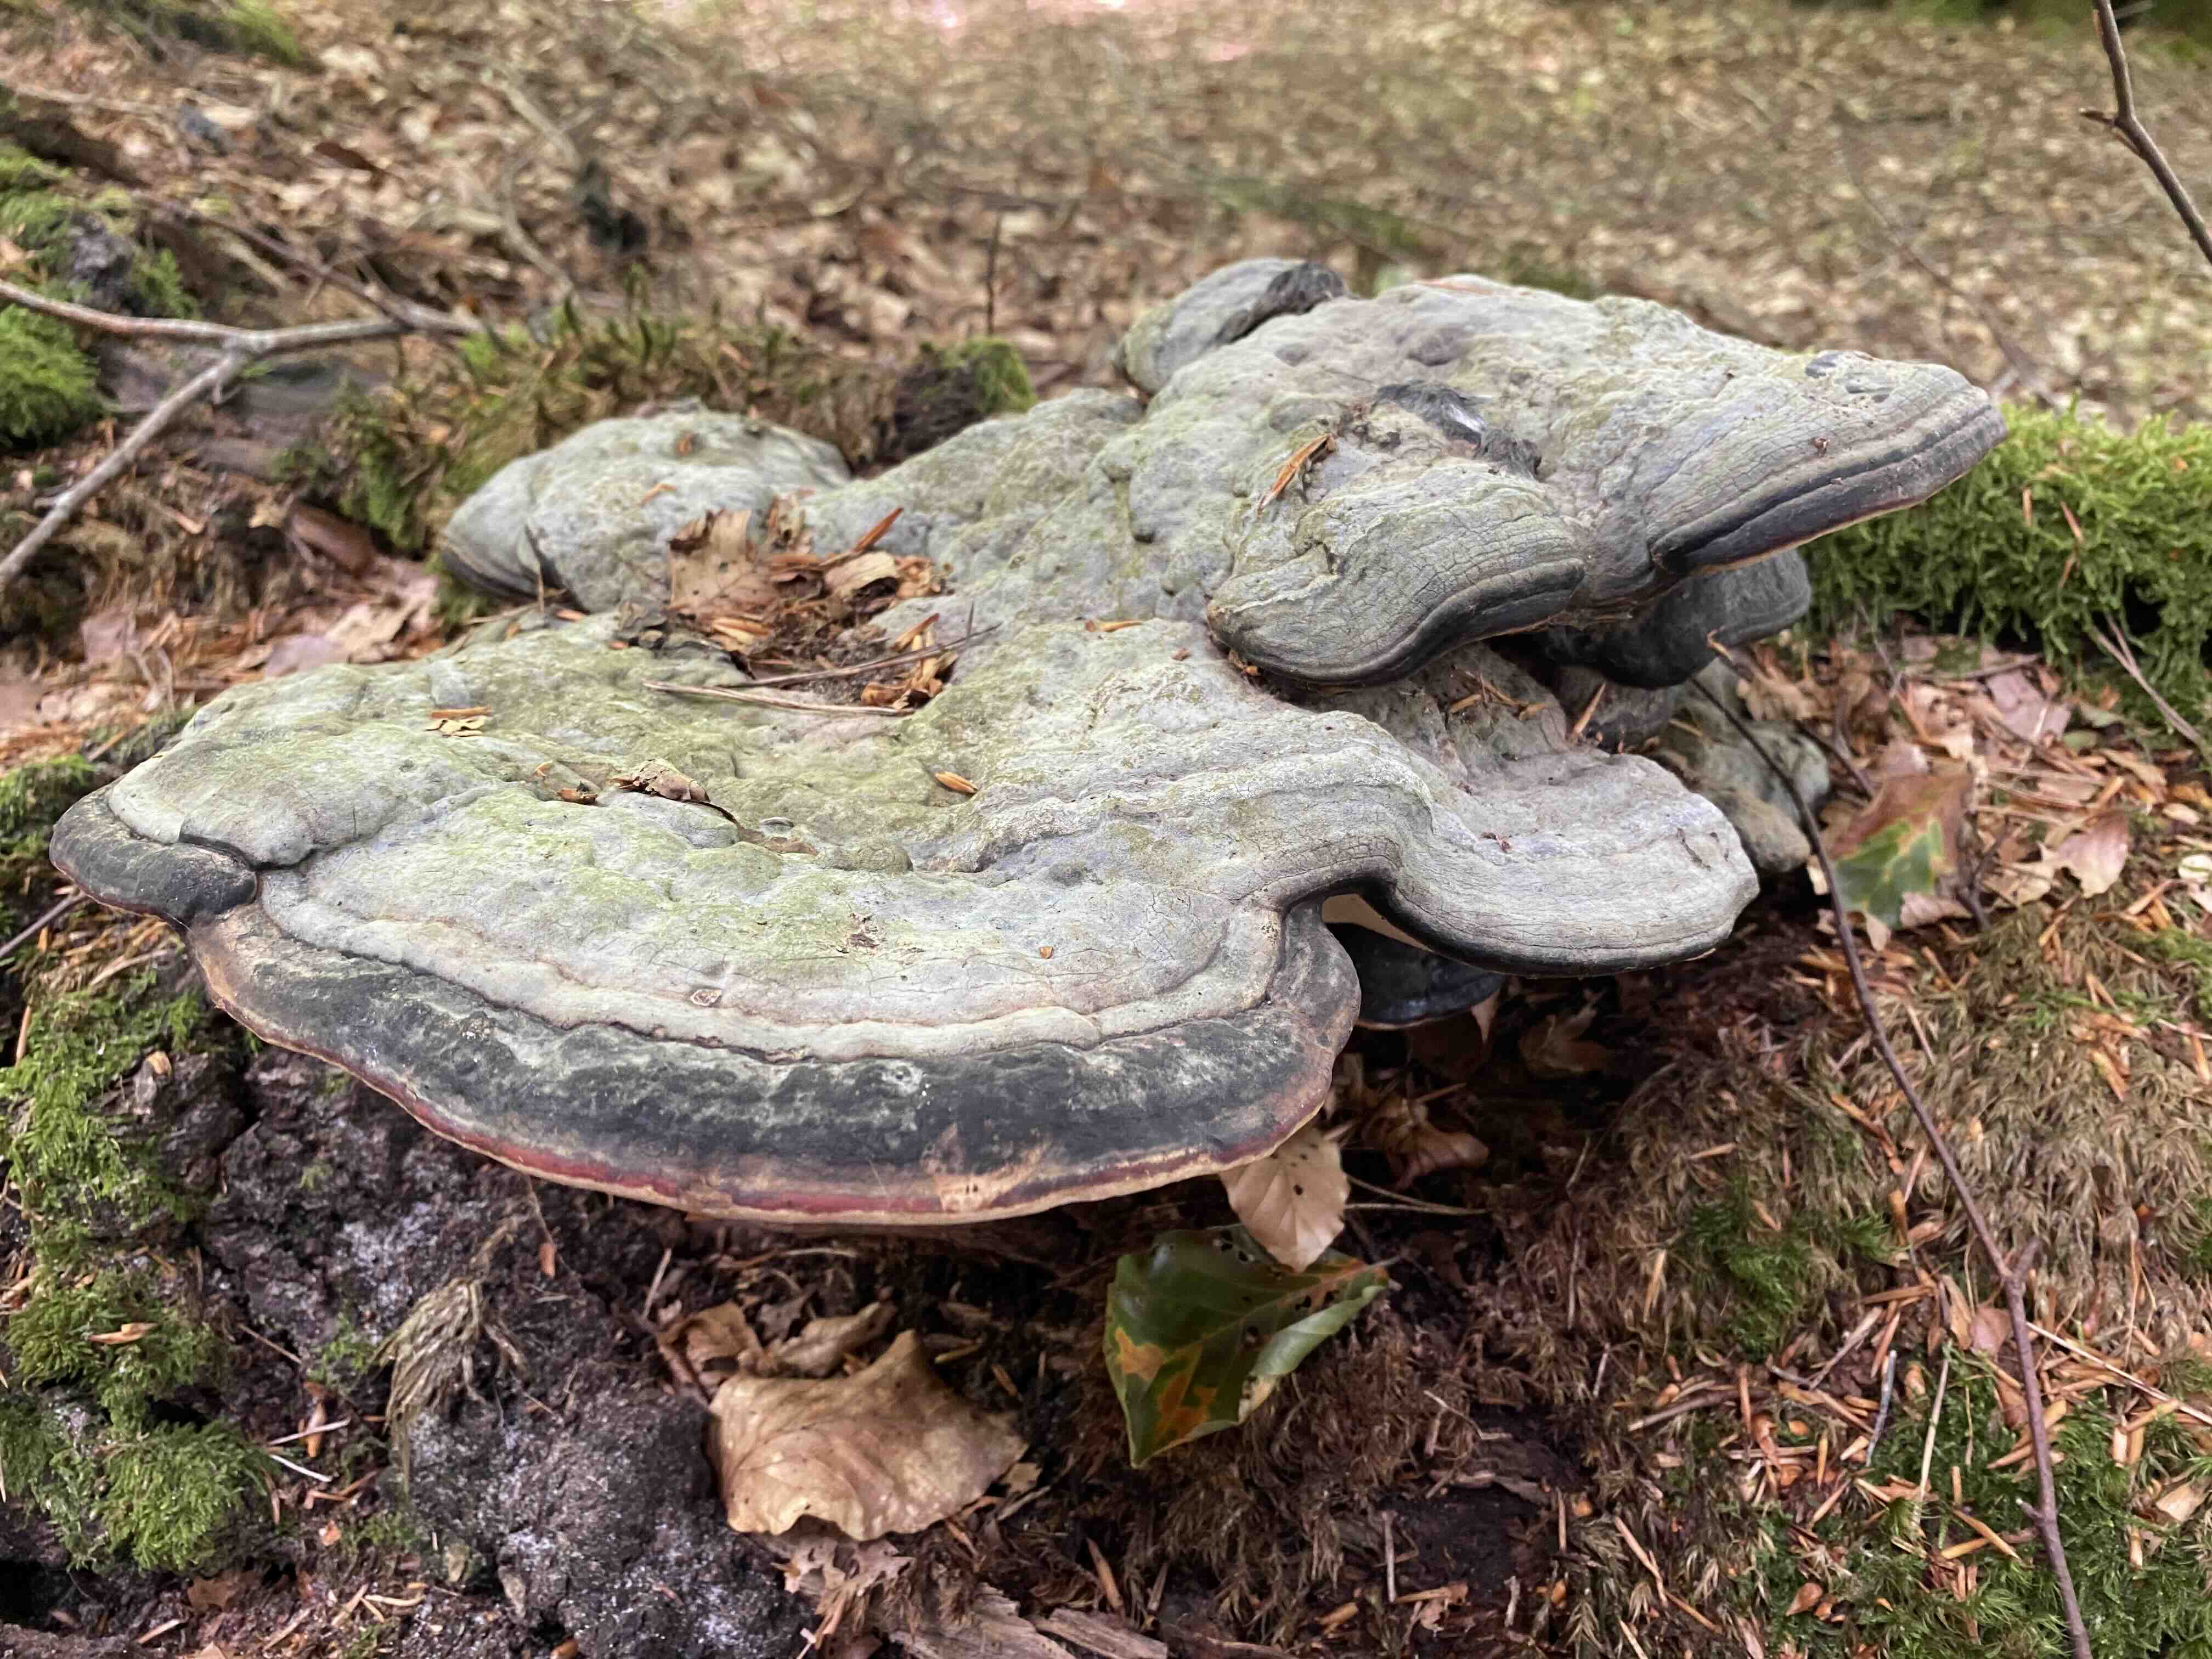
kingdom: Fungi
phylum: Basidiomycota
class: Agaricomycetes
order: Polyporales
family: Polyporaceae
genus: Fomes
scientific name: Fomes fomentarius
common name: tøndersvamp
